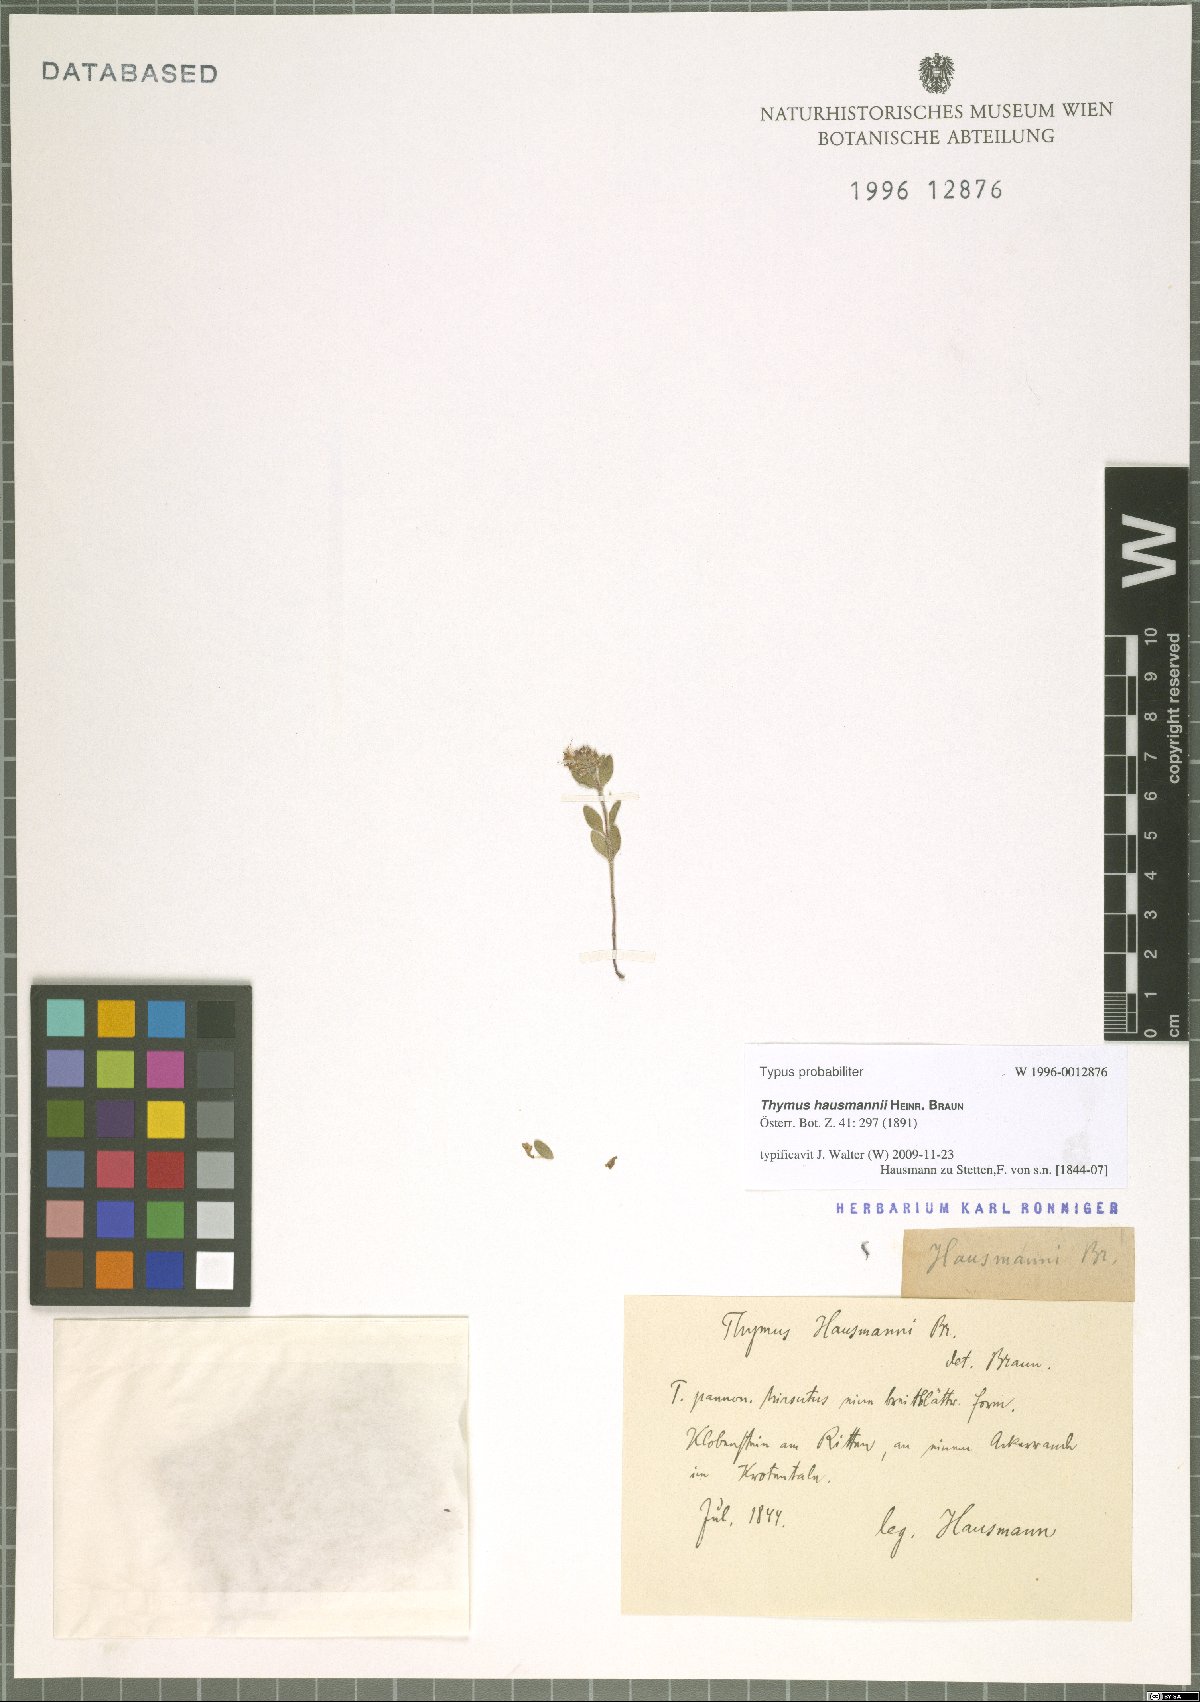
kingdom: Plantae
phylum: Tracheophyta
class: Magnoliopsida
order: Lamiales
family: Lamiaceae
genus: Thymus
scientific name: Thymus serpyllum
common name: Breckland thyme
